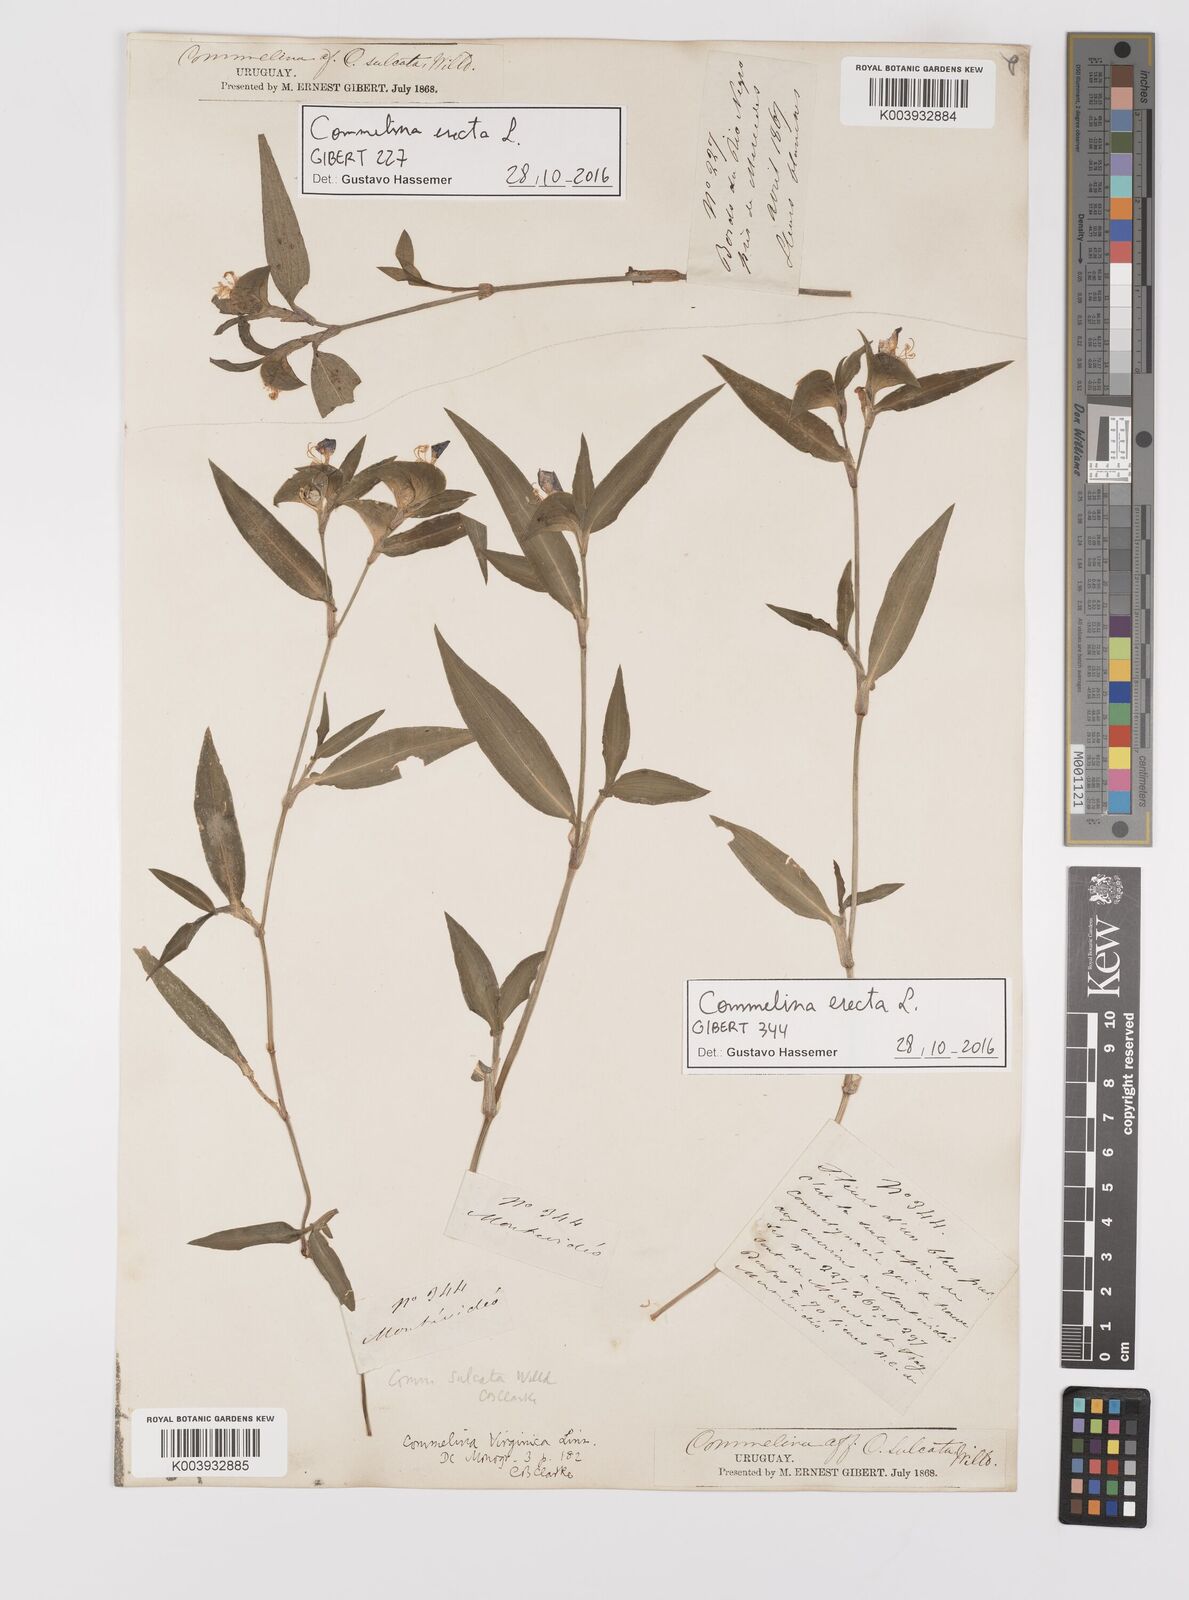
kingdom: Plantae
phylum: Tracheophyta
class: Liliopsida
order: Commelinales
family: Commelinaceae
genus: Commelina
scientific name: Commelina erecta
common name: Blousel blommetjie
